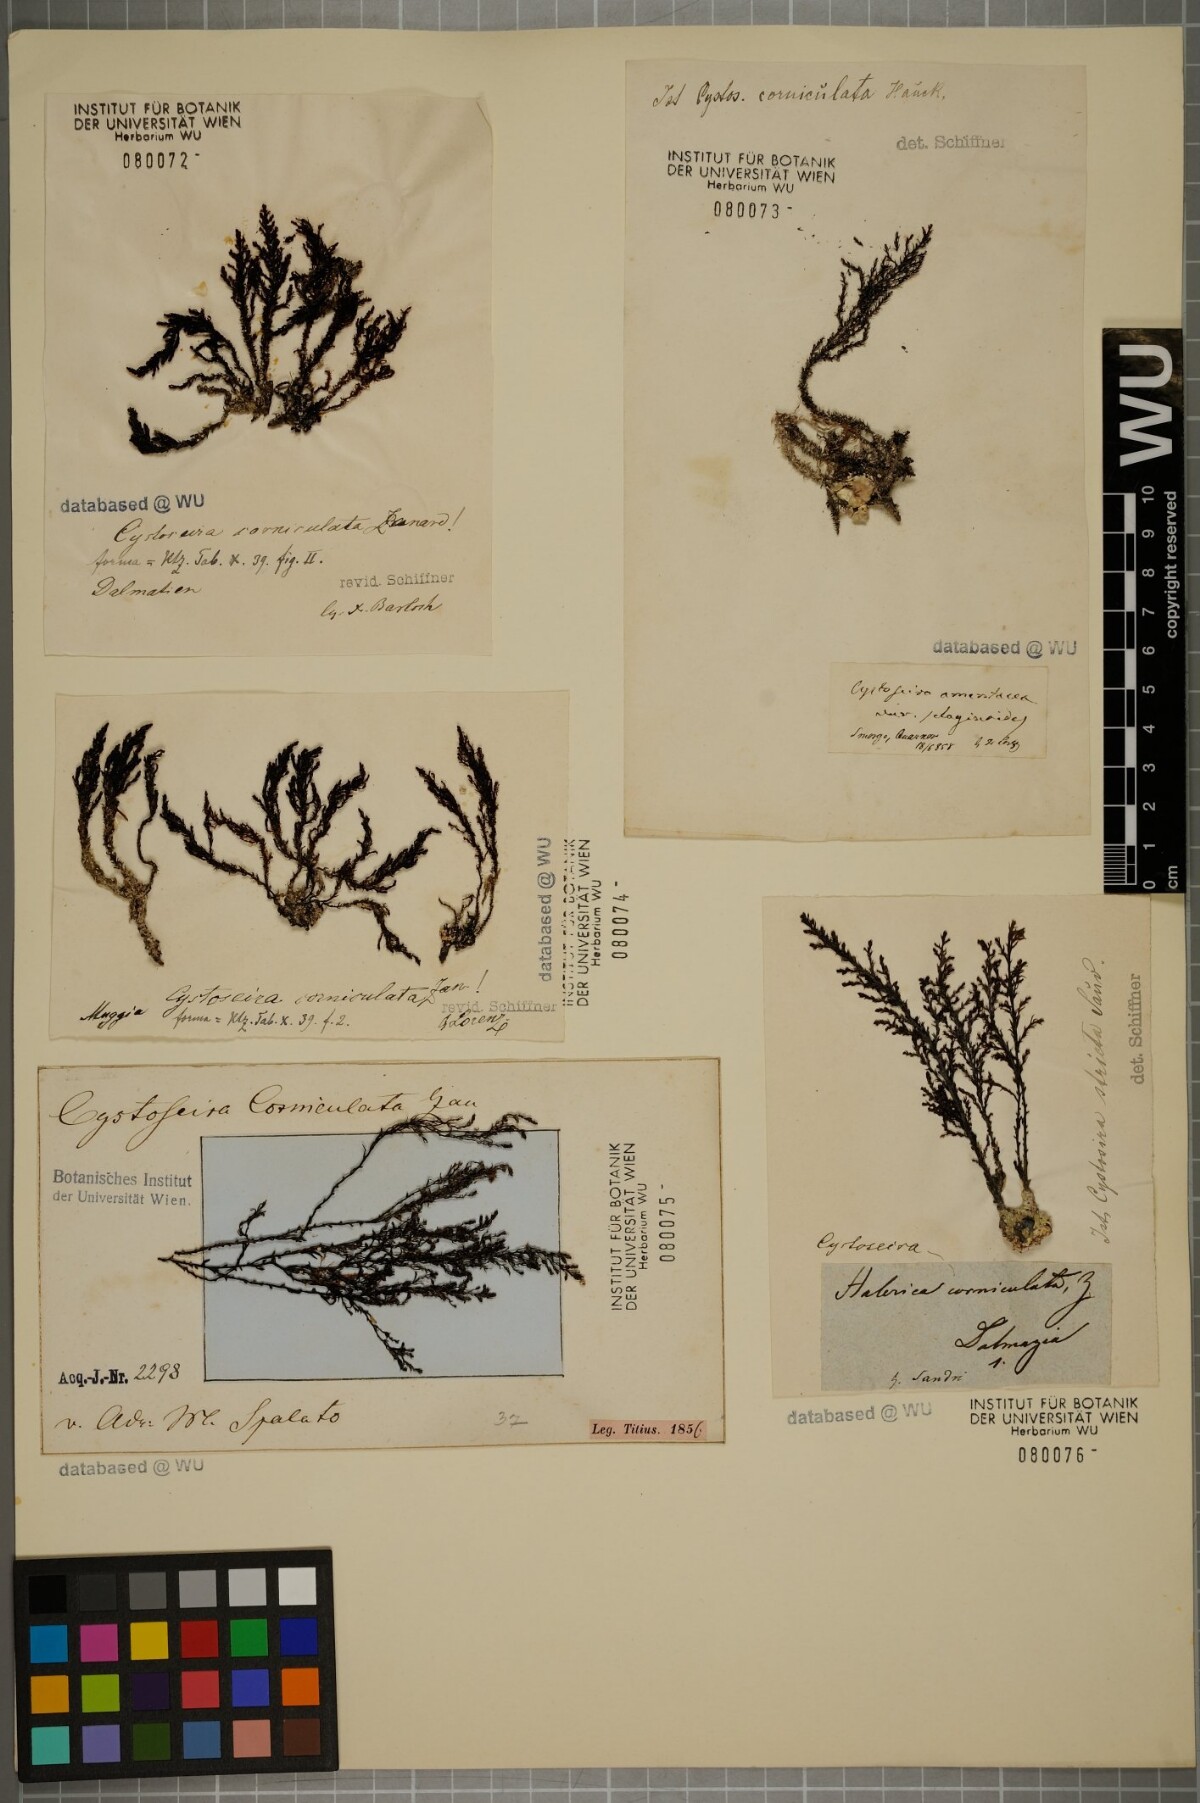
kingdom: Chromista
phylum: Ochrophyta
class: Phaeophyceae
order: Fucales
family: Sargassaceae
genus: Cystoseira
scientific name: Cystoseira corniculata
